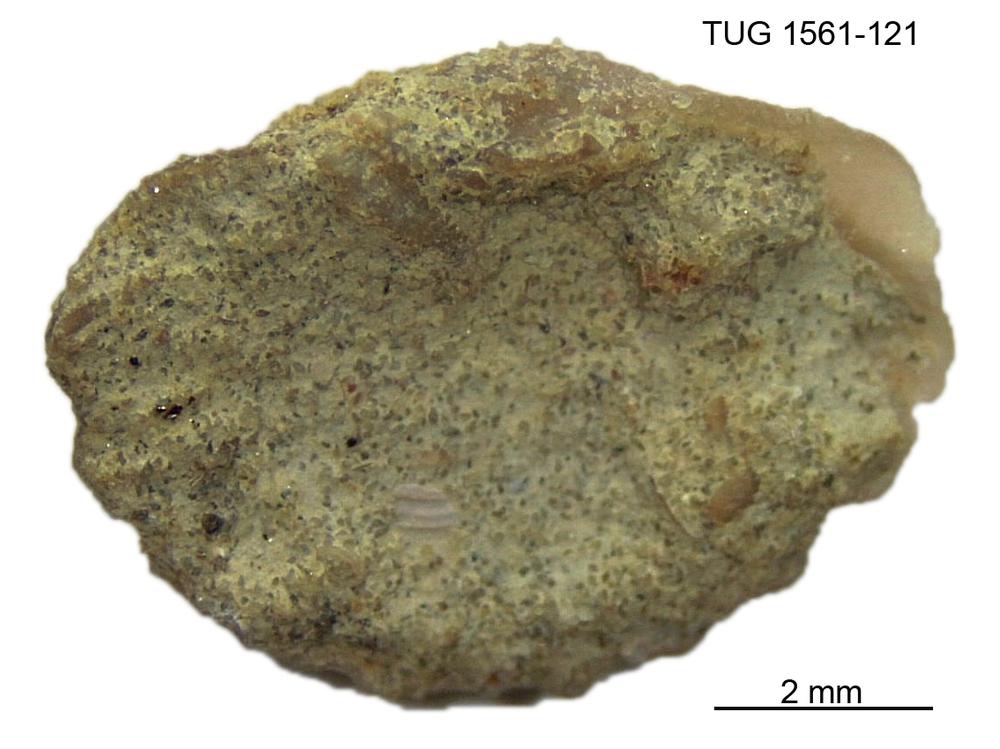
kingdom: Animalia
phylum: Brachiopoda
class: Rhynchonellata
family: Rhynchospirinidae
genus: Homoeospira
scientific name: Homoeospira Terebratula baylei
